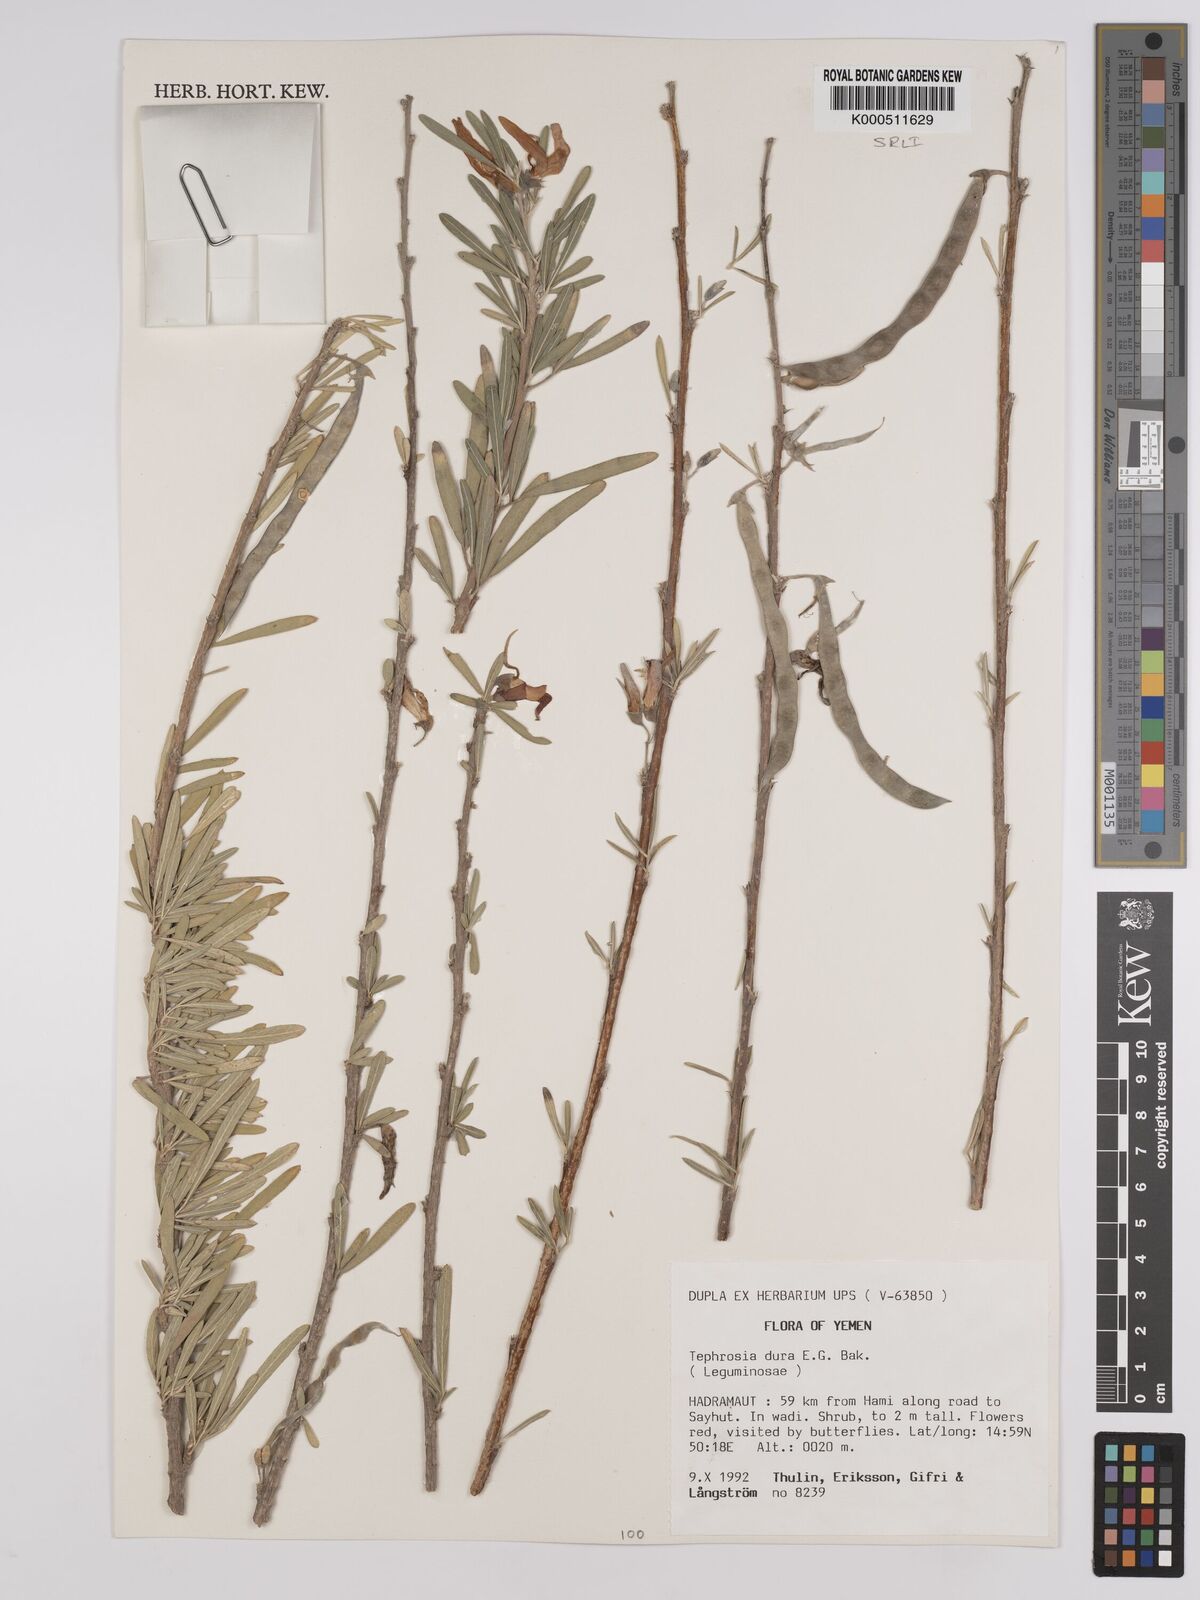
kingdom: Plantae
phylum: Tracheophyta
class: Magnoliopsida
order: Fabales
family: Fabaceae
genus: Tephrosia
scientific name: Tephrosia dura
